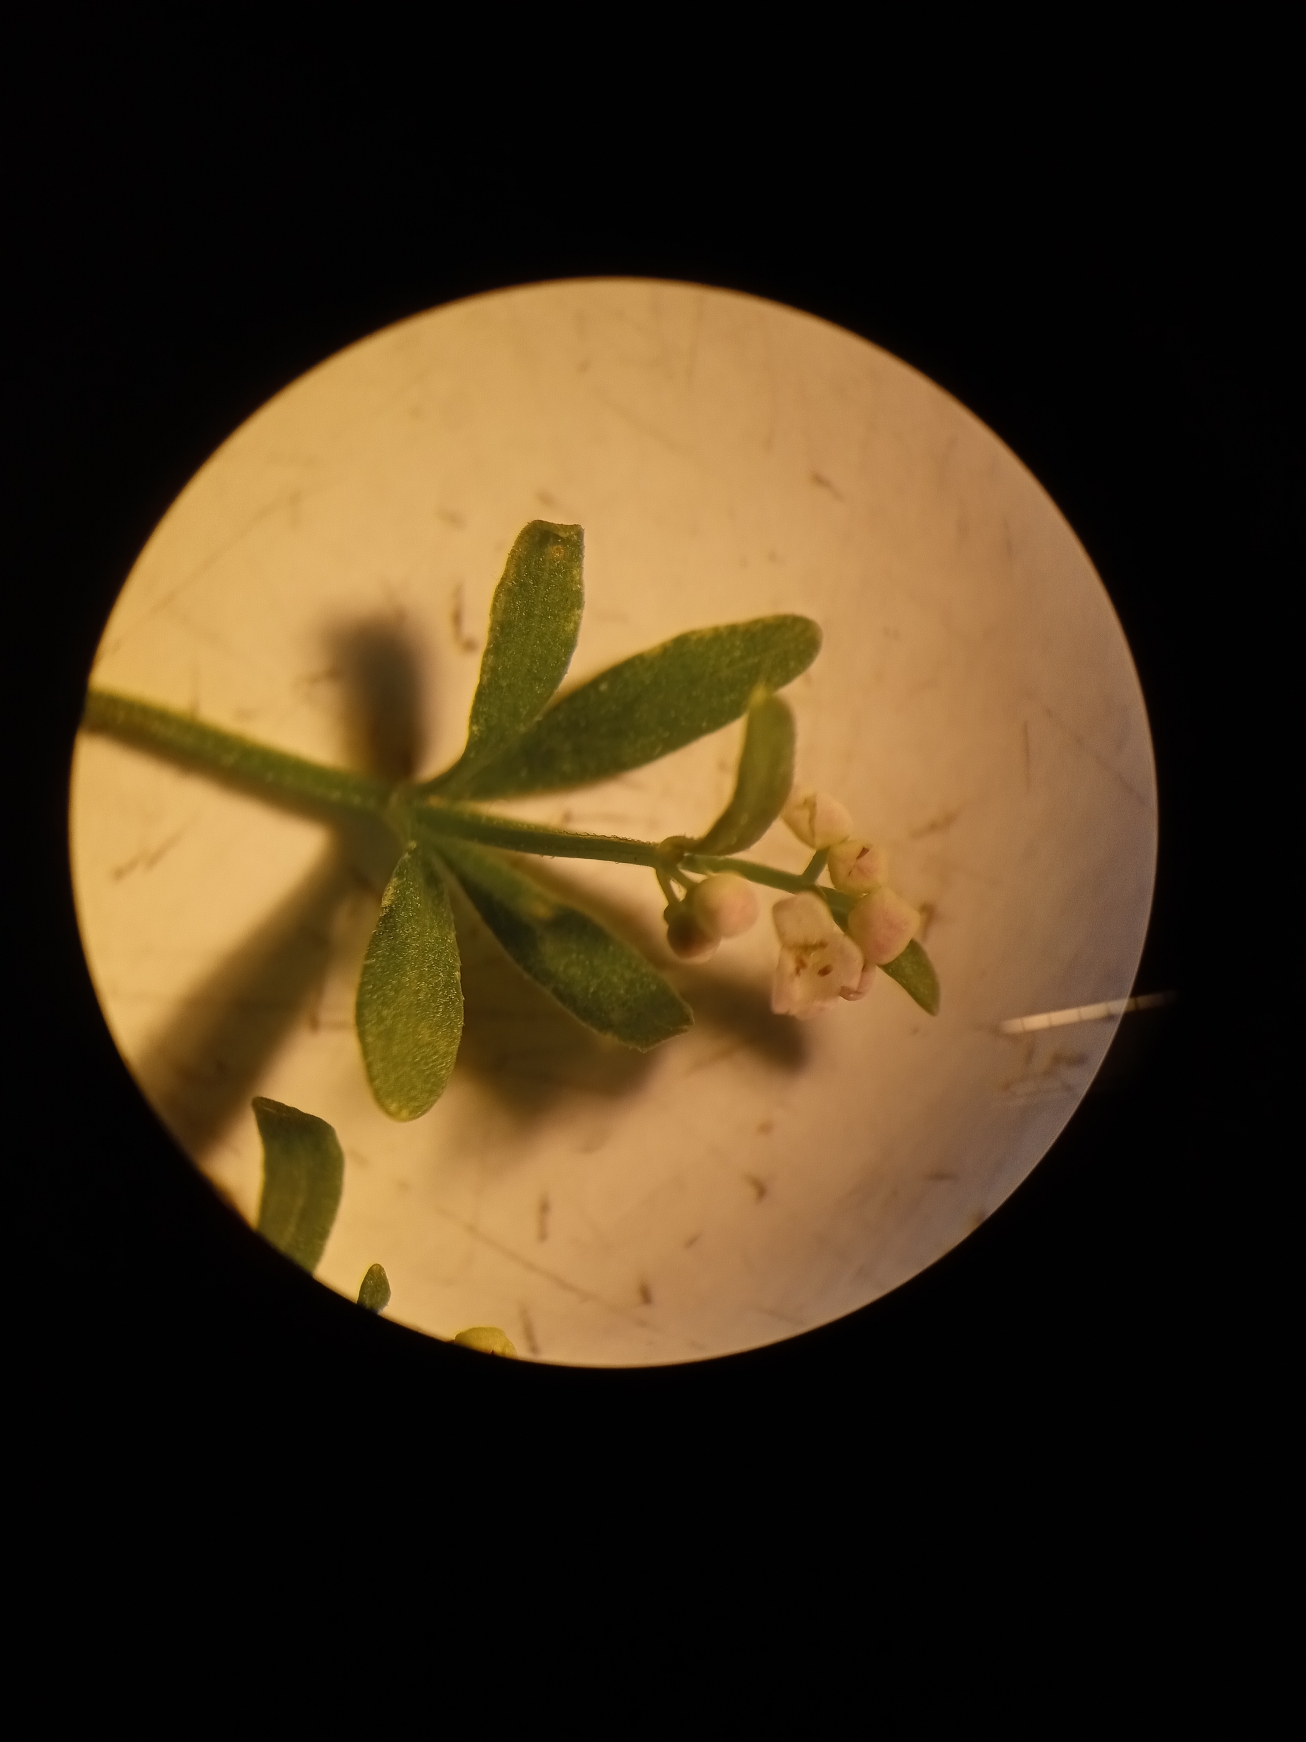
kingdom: Plantae
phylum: Tracheophyta
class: Magnoliopsida
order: Gentianales
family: Rubiaceae
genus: Galium
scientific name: Galium palustre
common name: Kær-snerre
